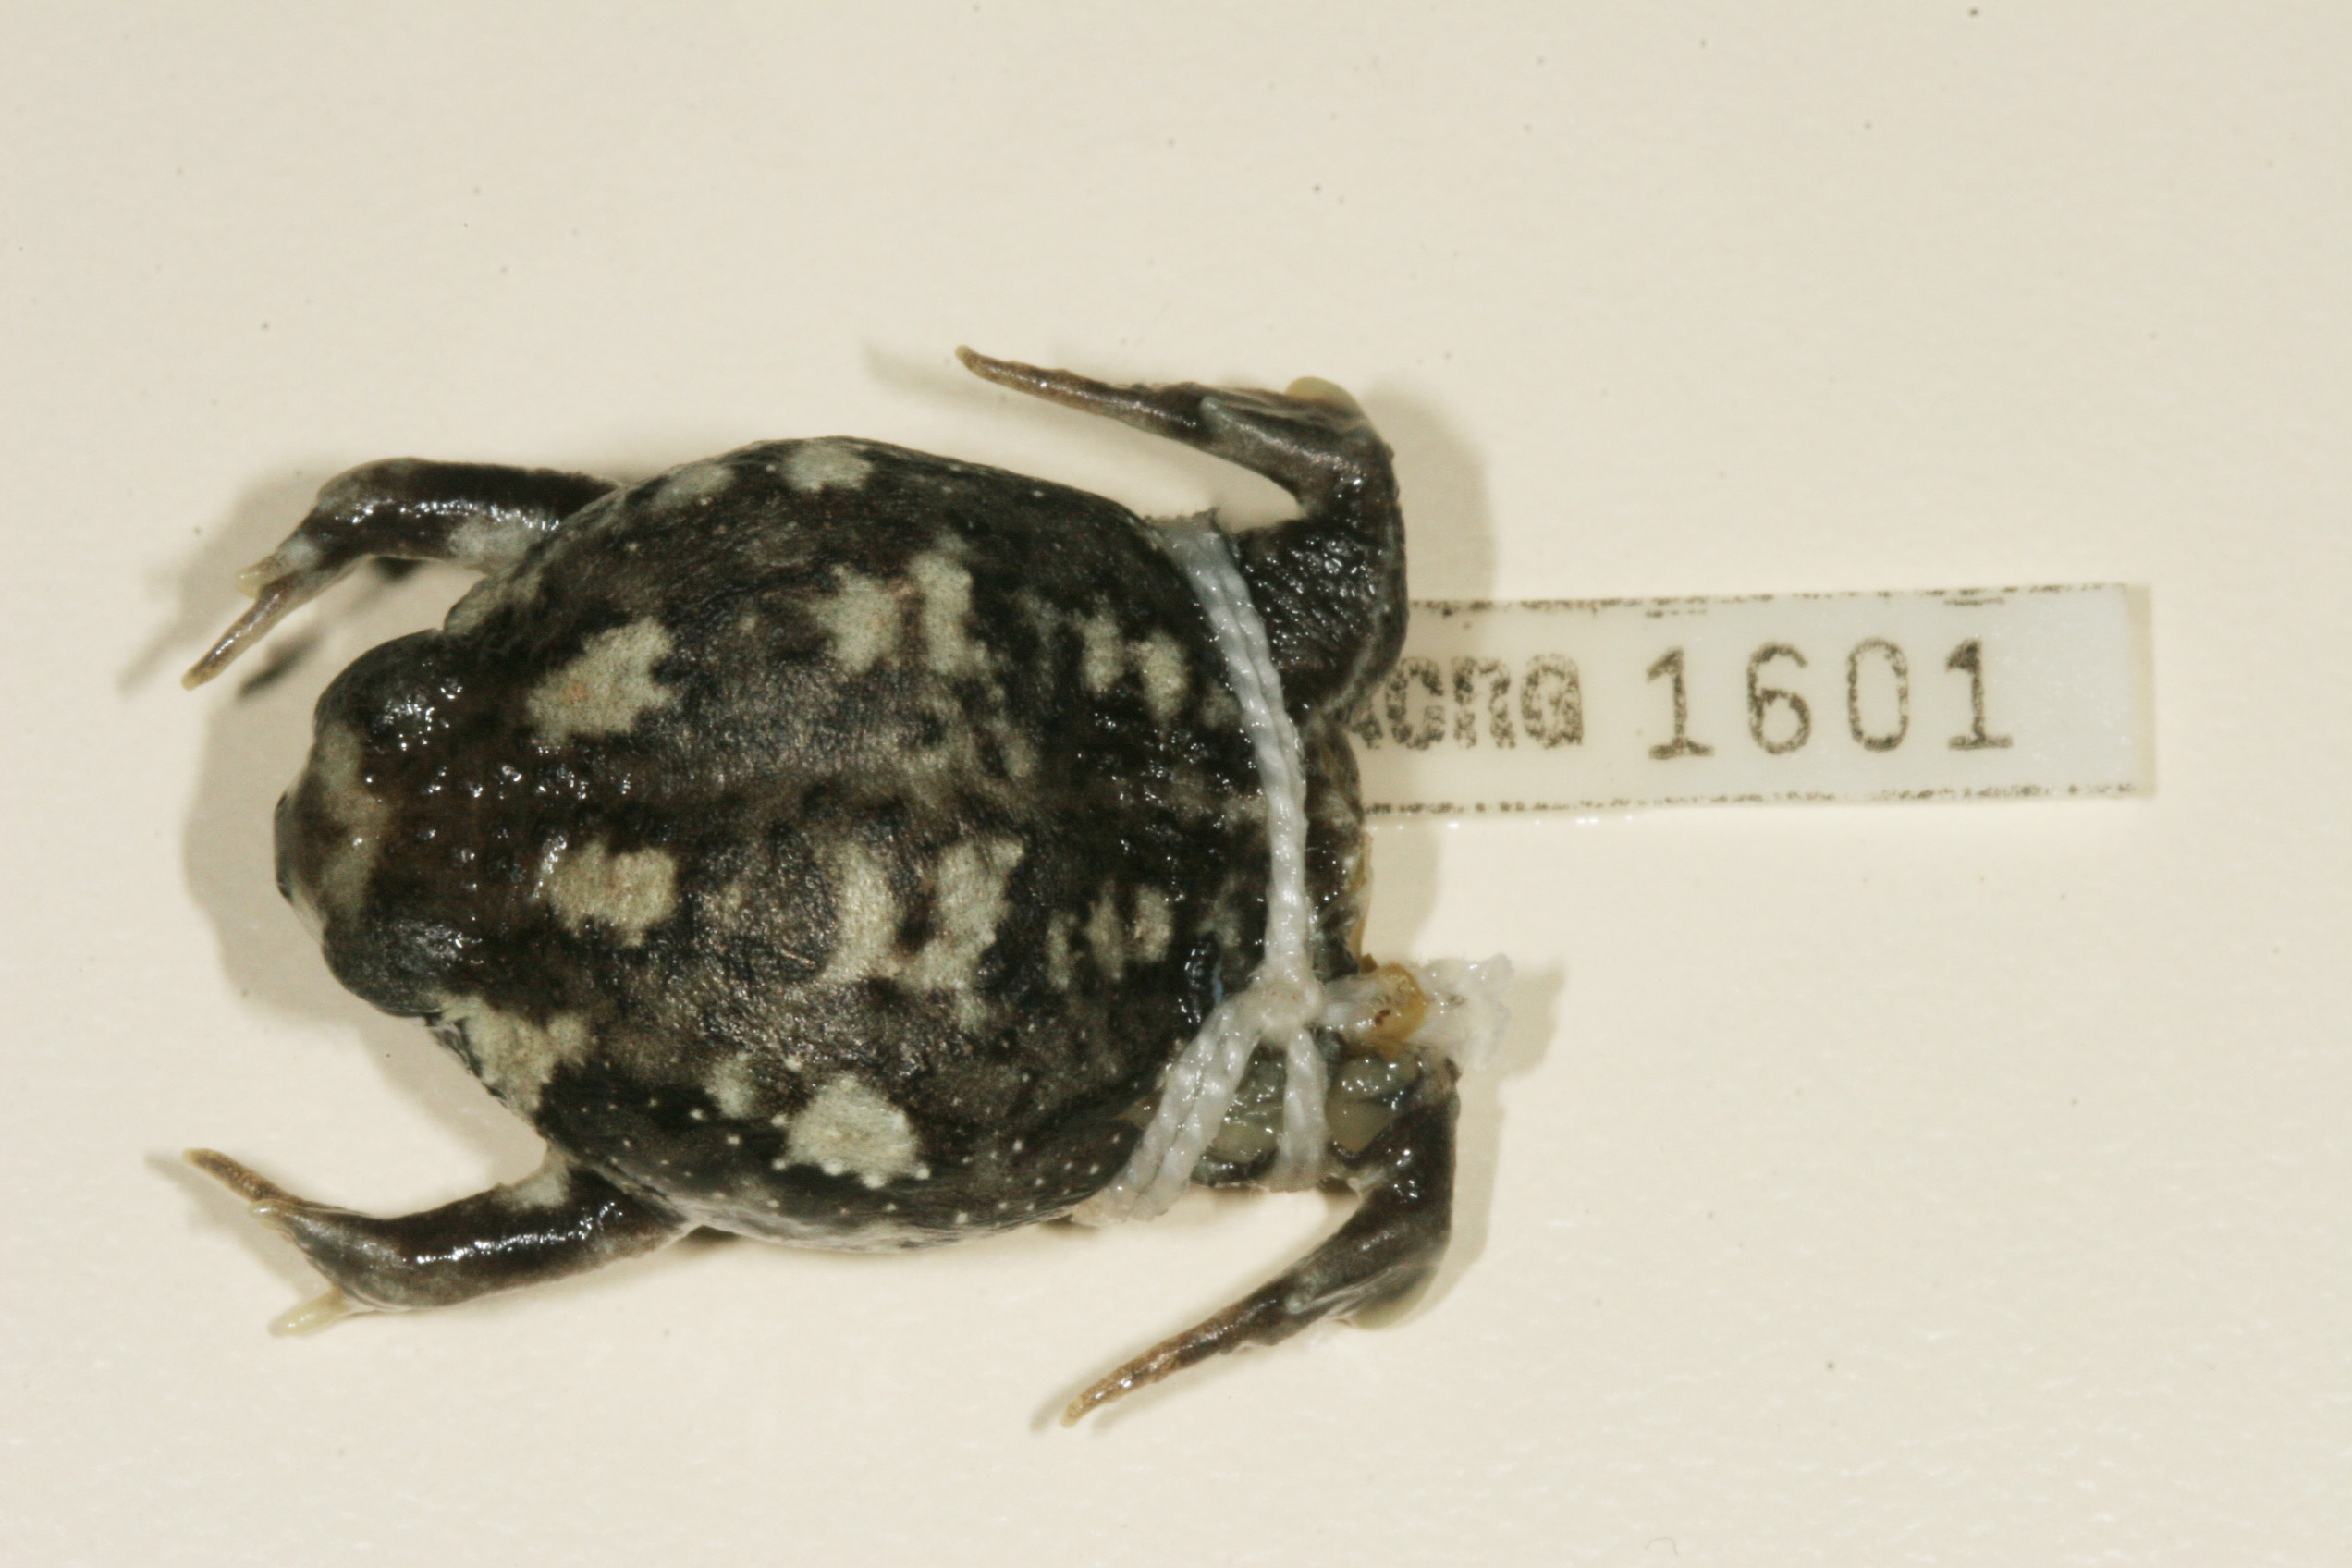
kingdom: Animalia
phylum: Chordata
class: Amphibia
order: Anura
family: Brevicipitidae
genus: Breviceps
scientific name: Breviceps adspersus
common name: Common rain frog
